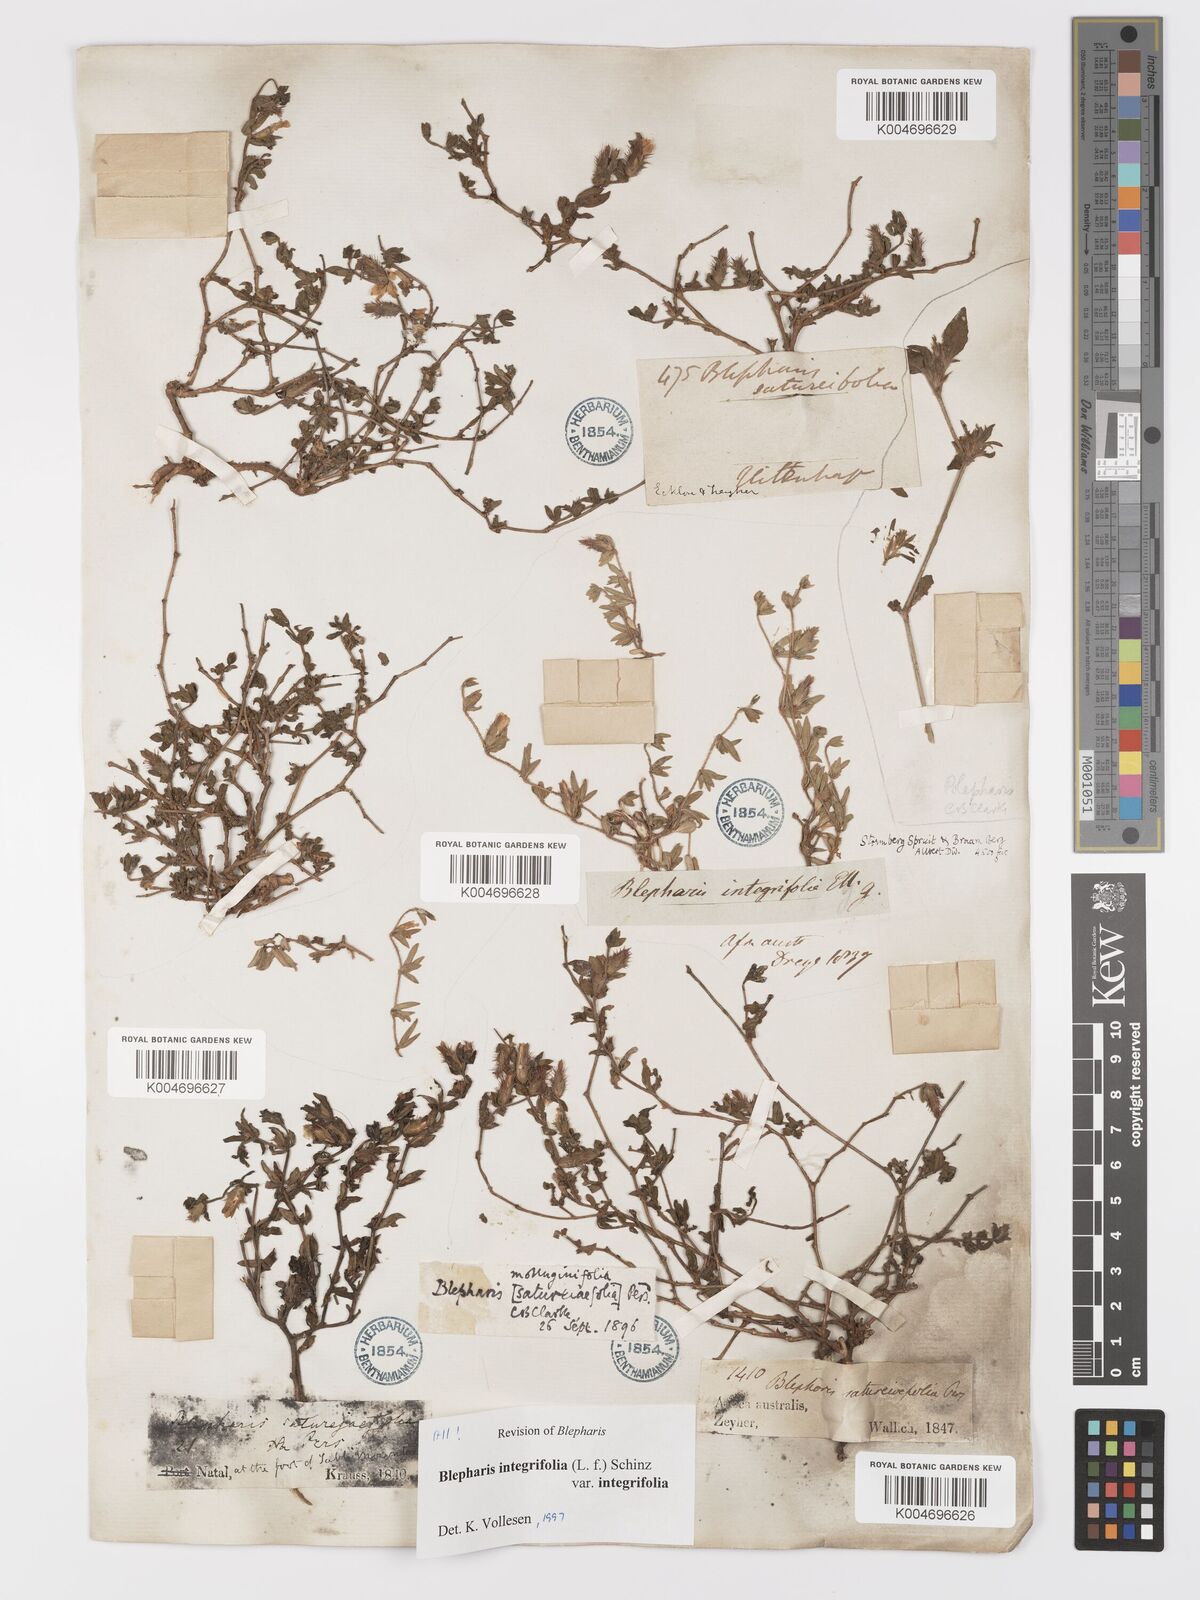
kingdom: Plantae
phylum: Tracheophyta
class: Magnoliopsida
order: Lamiales
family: Acanthaceae
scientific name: Acanthaceae
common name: Acanthaceae
